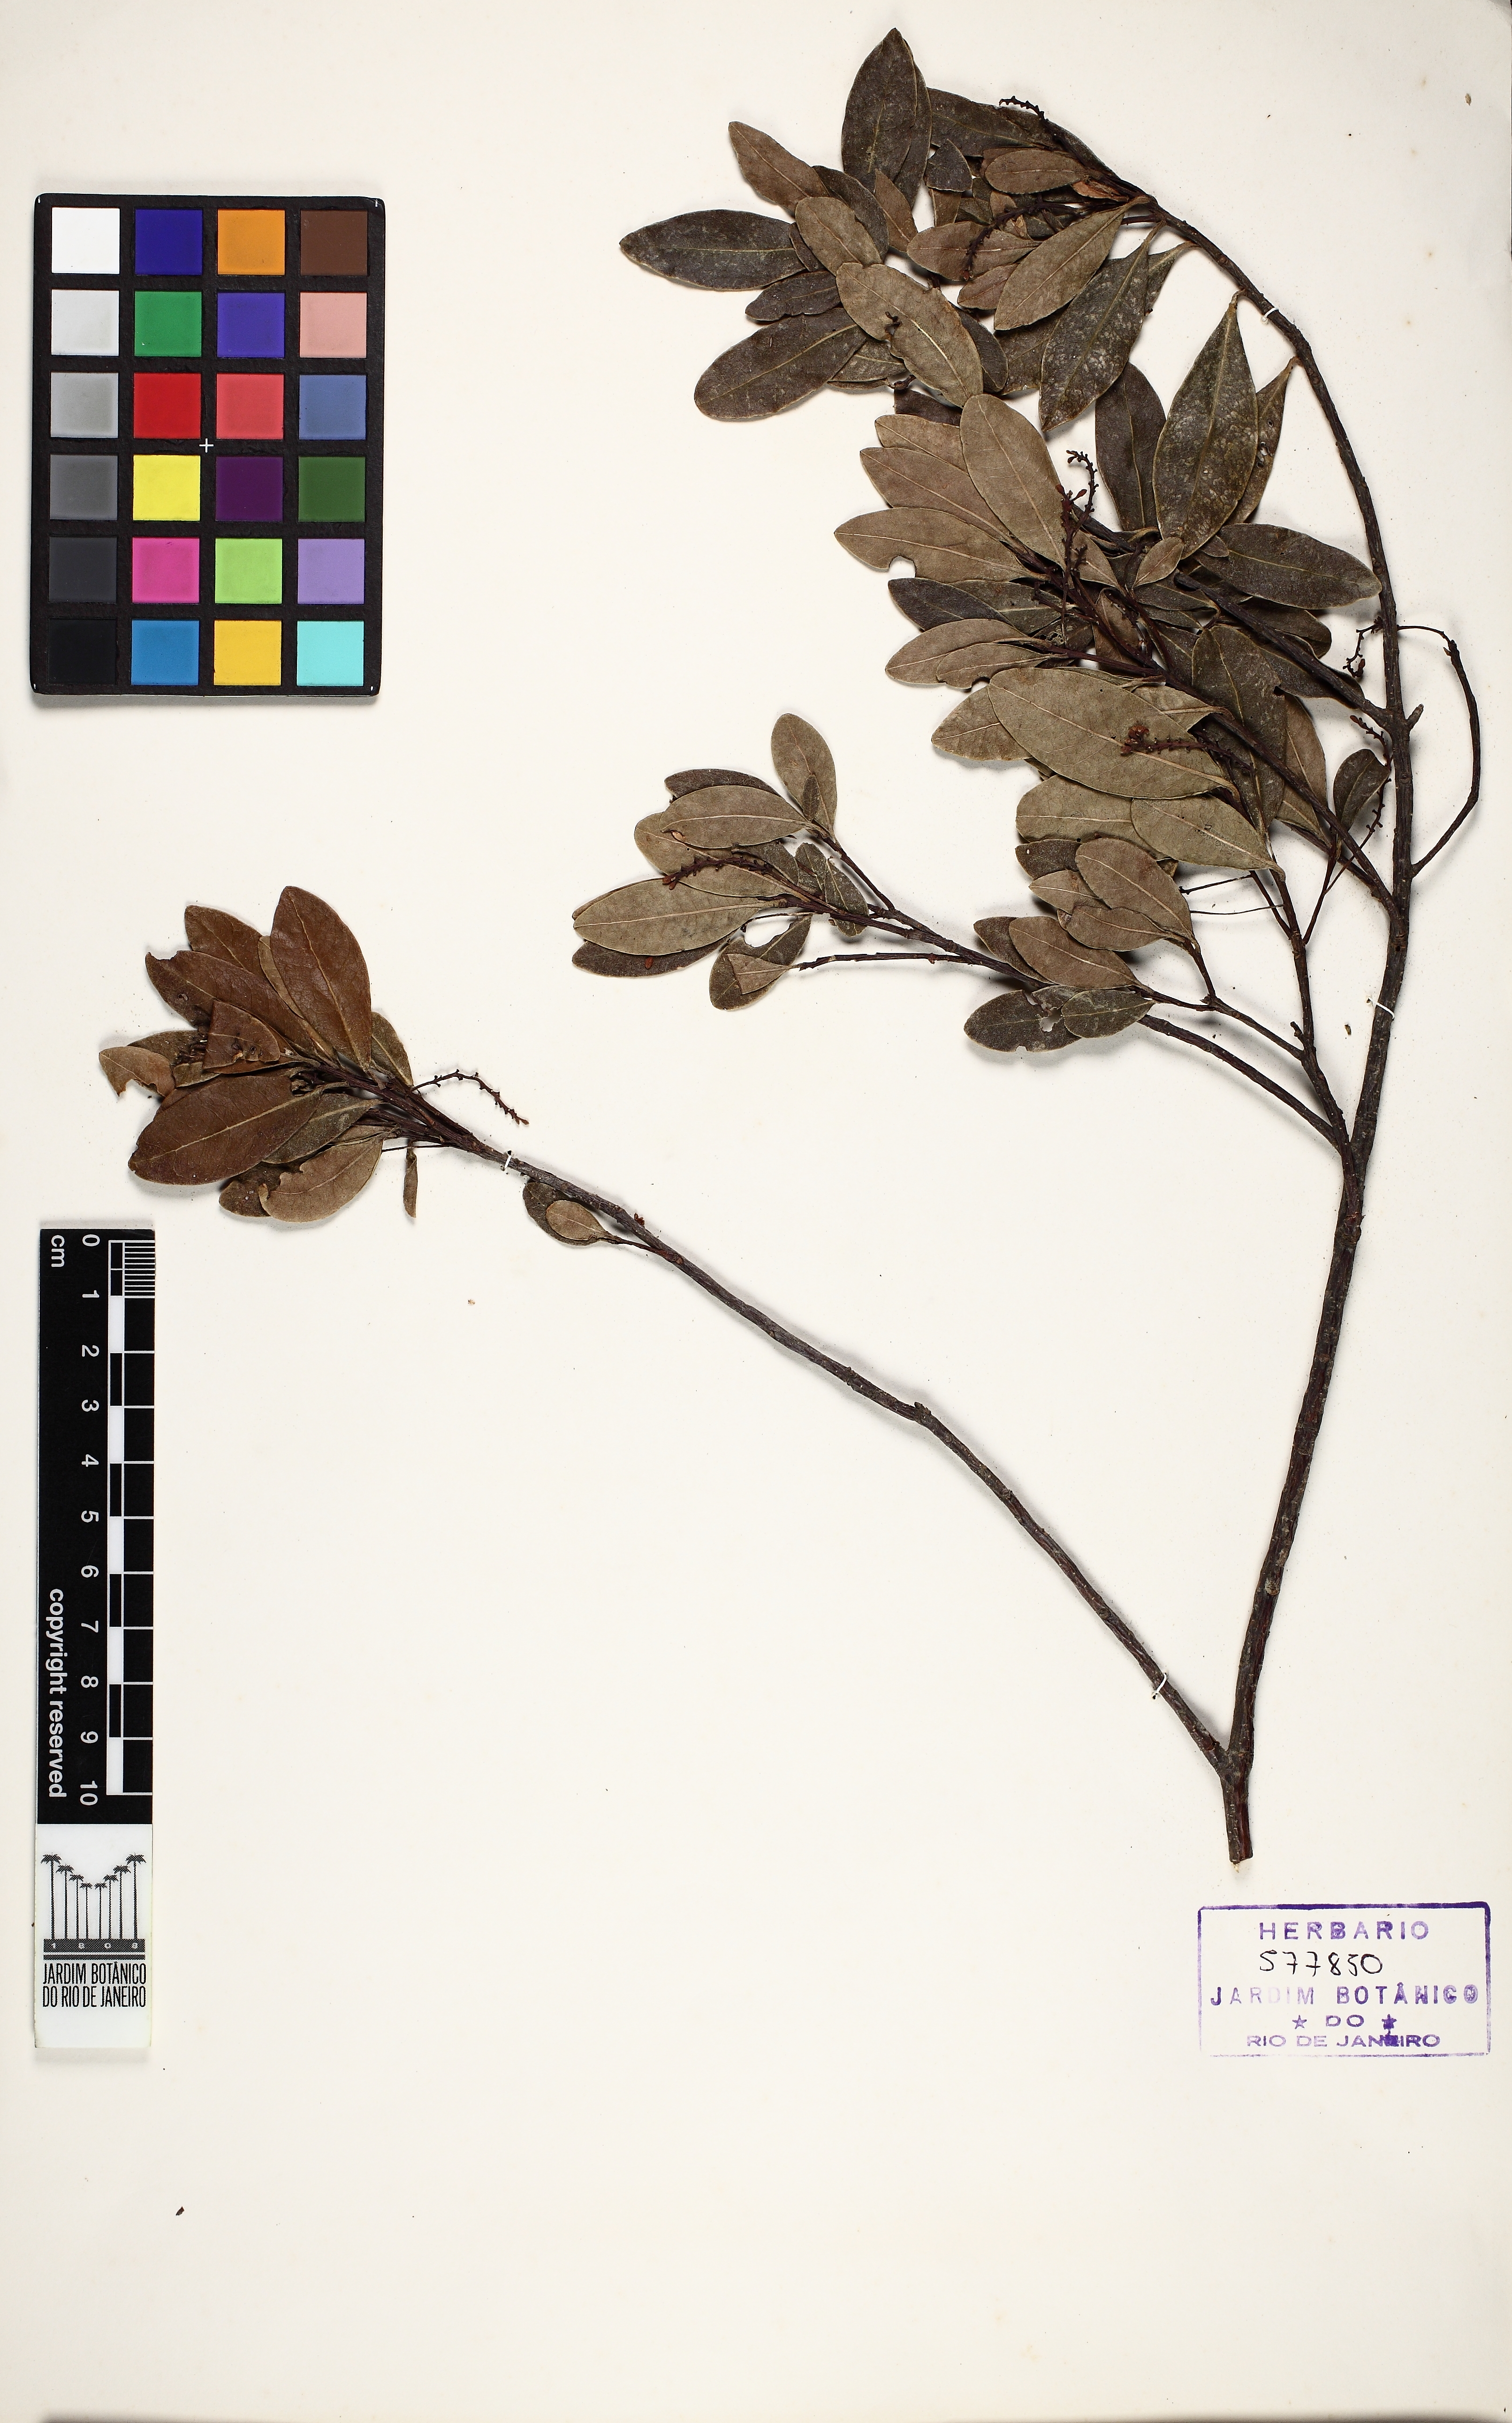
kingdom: Plantae
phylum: Tracheophyta
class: Magnoliopsida
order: Malvales
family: Thymelaeaceae
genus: Daphnopsis
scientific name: Daphnopsis alpestris
